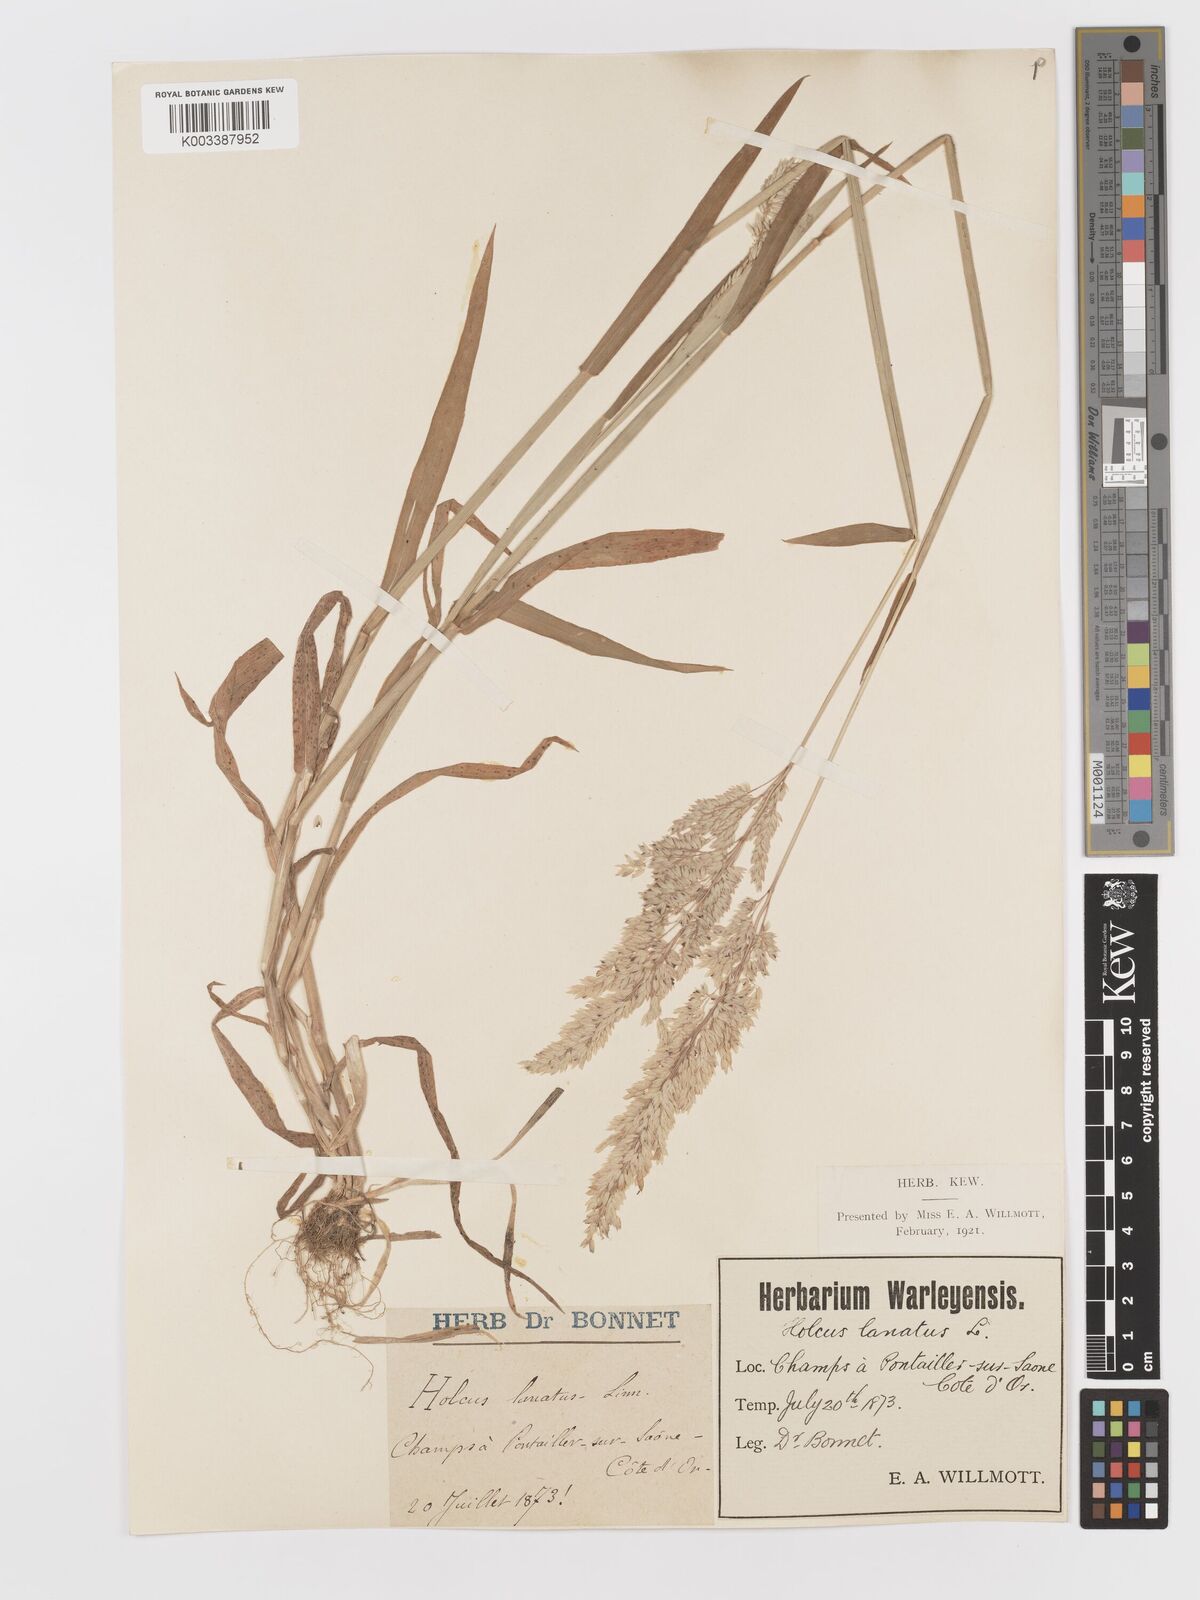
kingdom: Plantae
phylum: Tracheophyta
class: Liliopsida
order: Poales
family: Poaceae
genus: Holcus
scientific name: Holcus lanatus
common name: Yorkshire-fog
